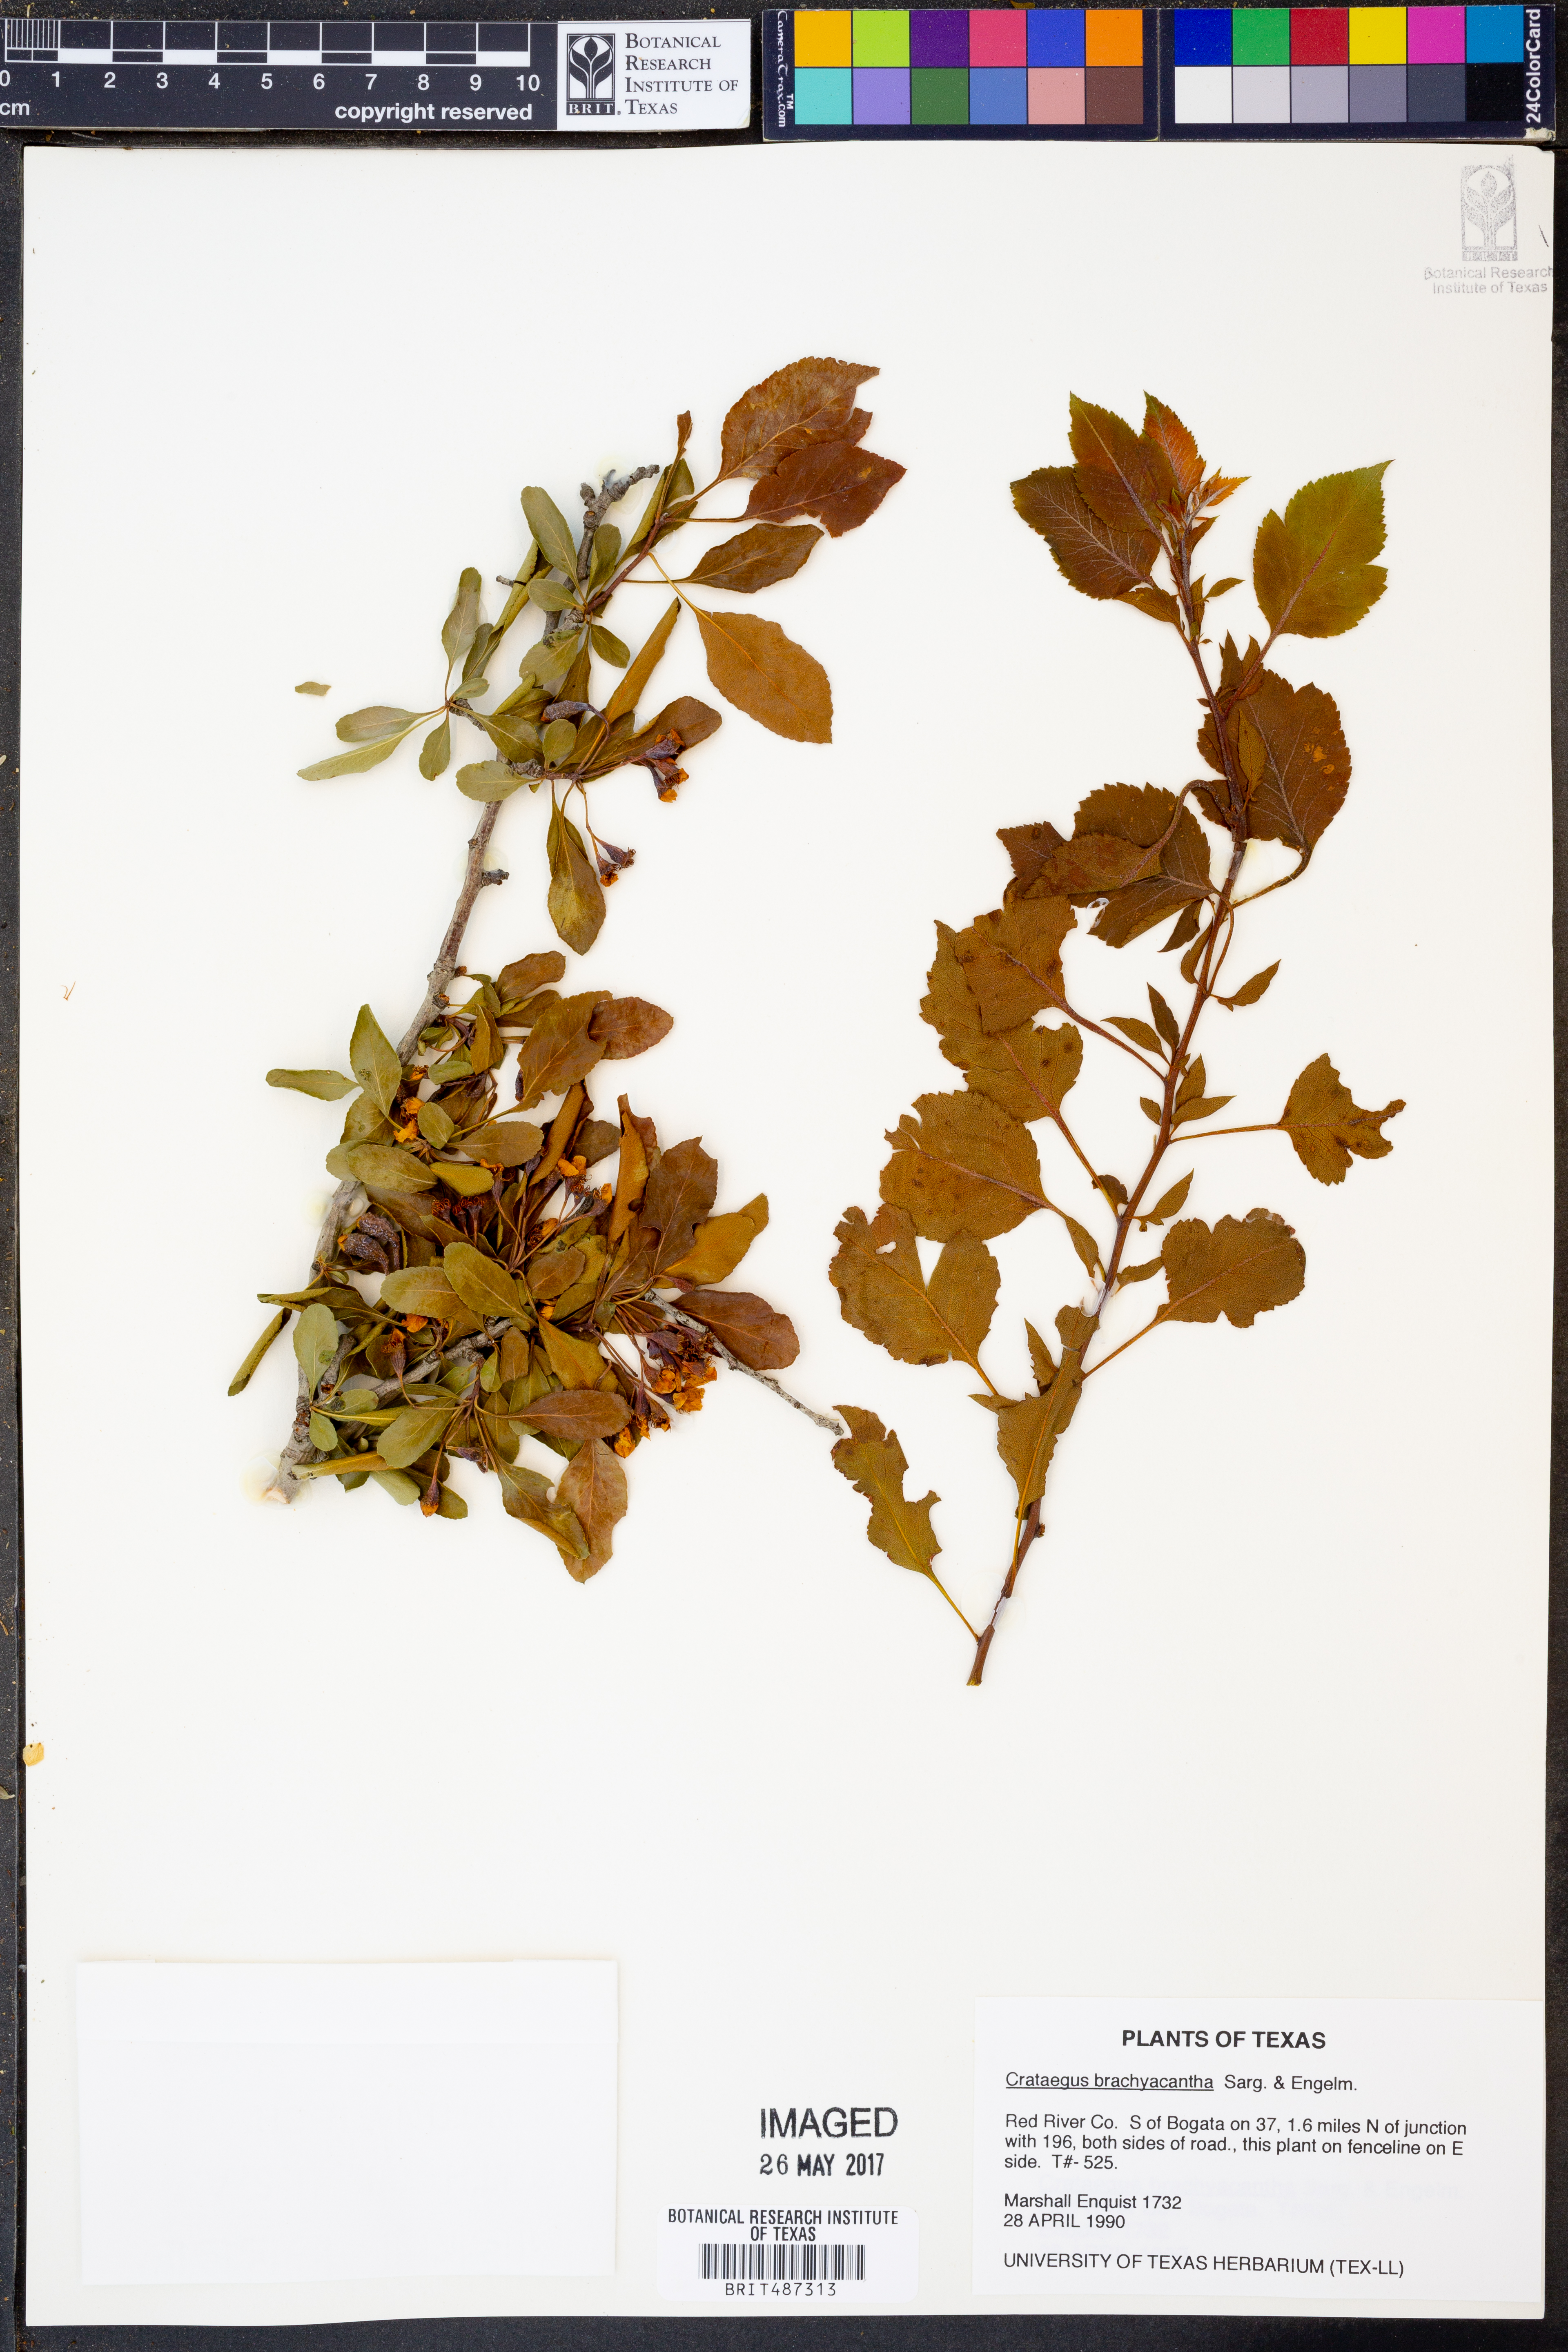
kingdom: Plantae
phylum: Tracheophyta
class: Magnoliopsida
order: Rosales
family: Rosaceae
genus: Crataegus
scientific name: Crataegus brachyacantha
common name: Blueberry-hawthorn
